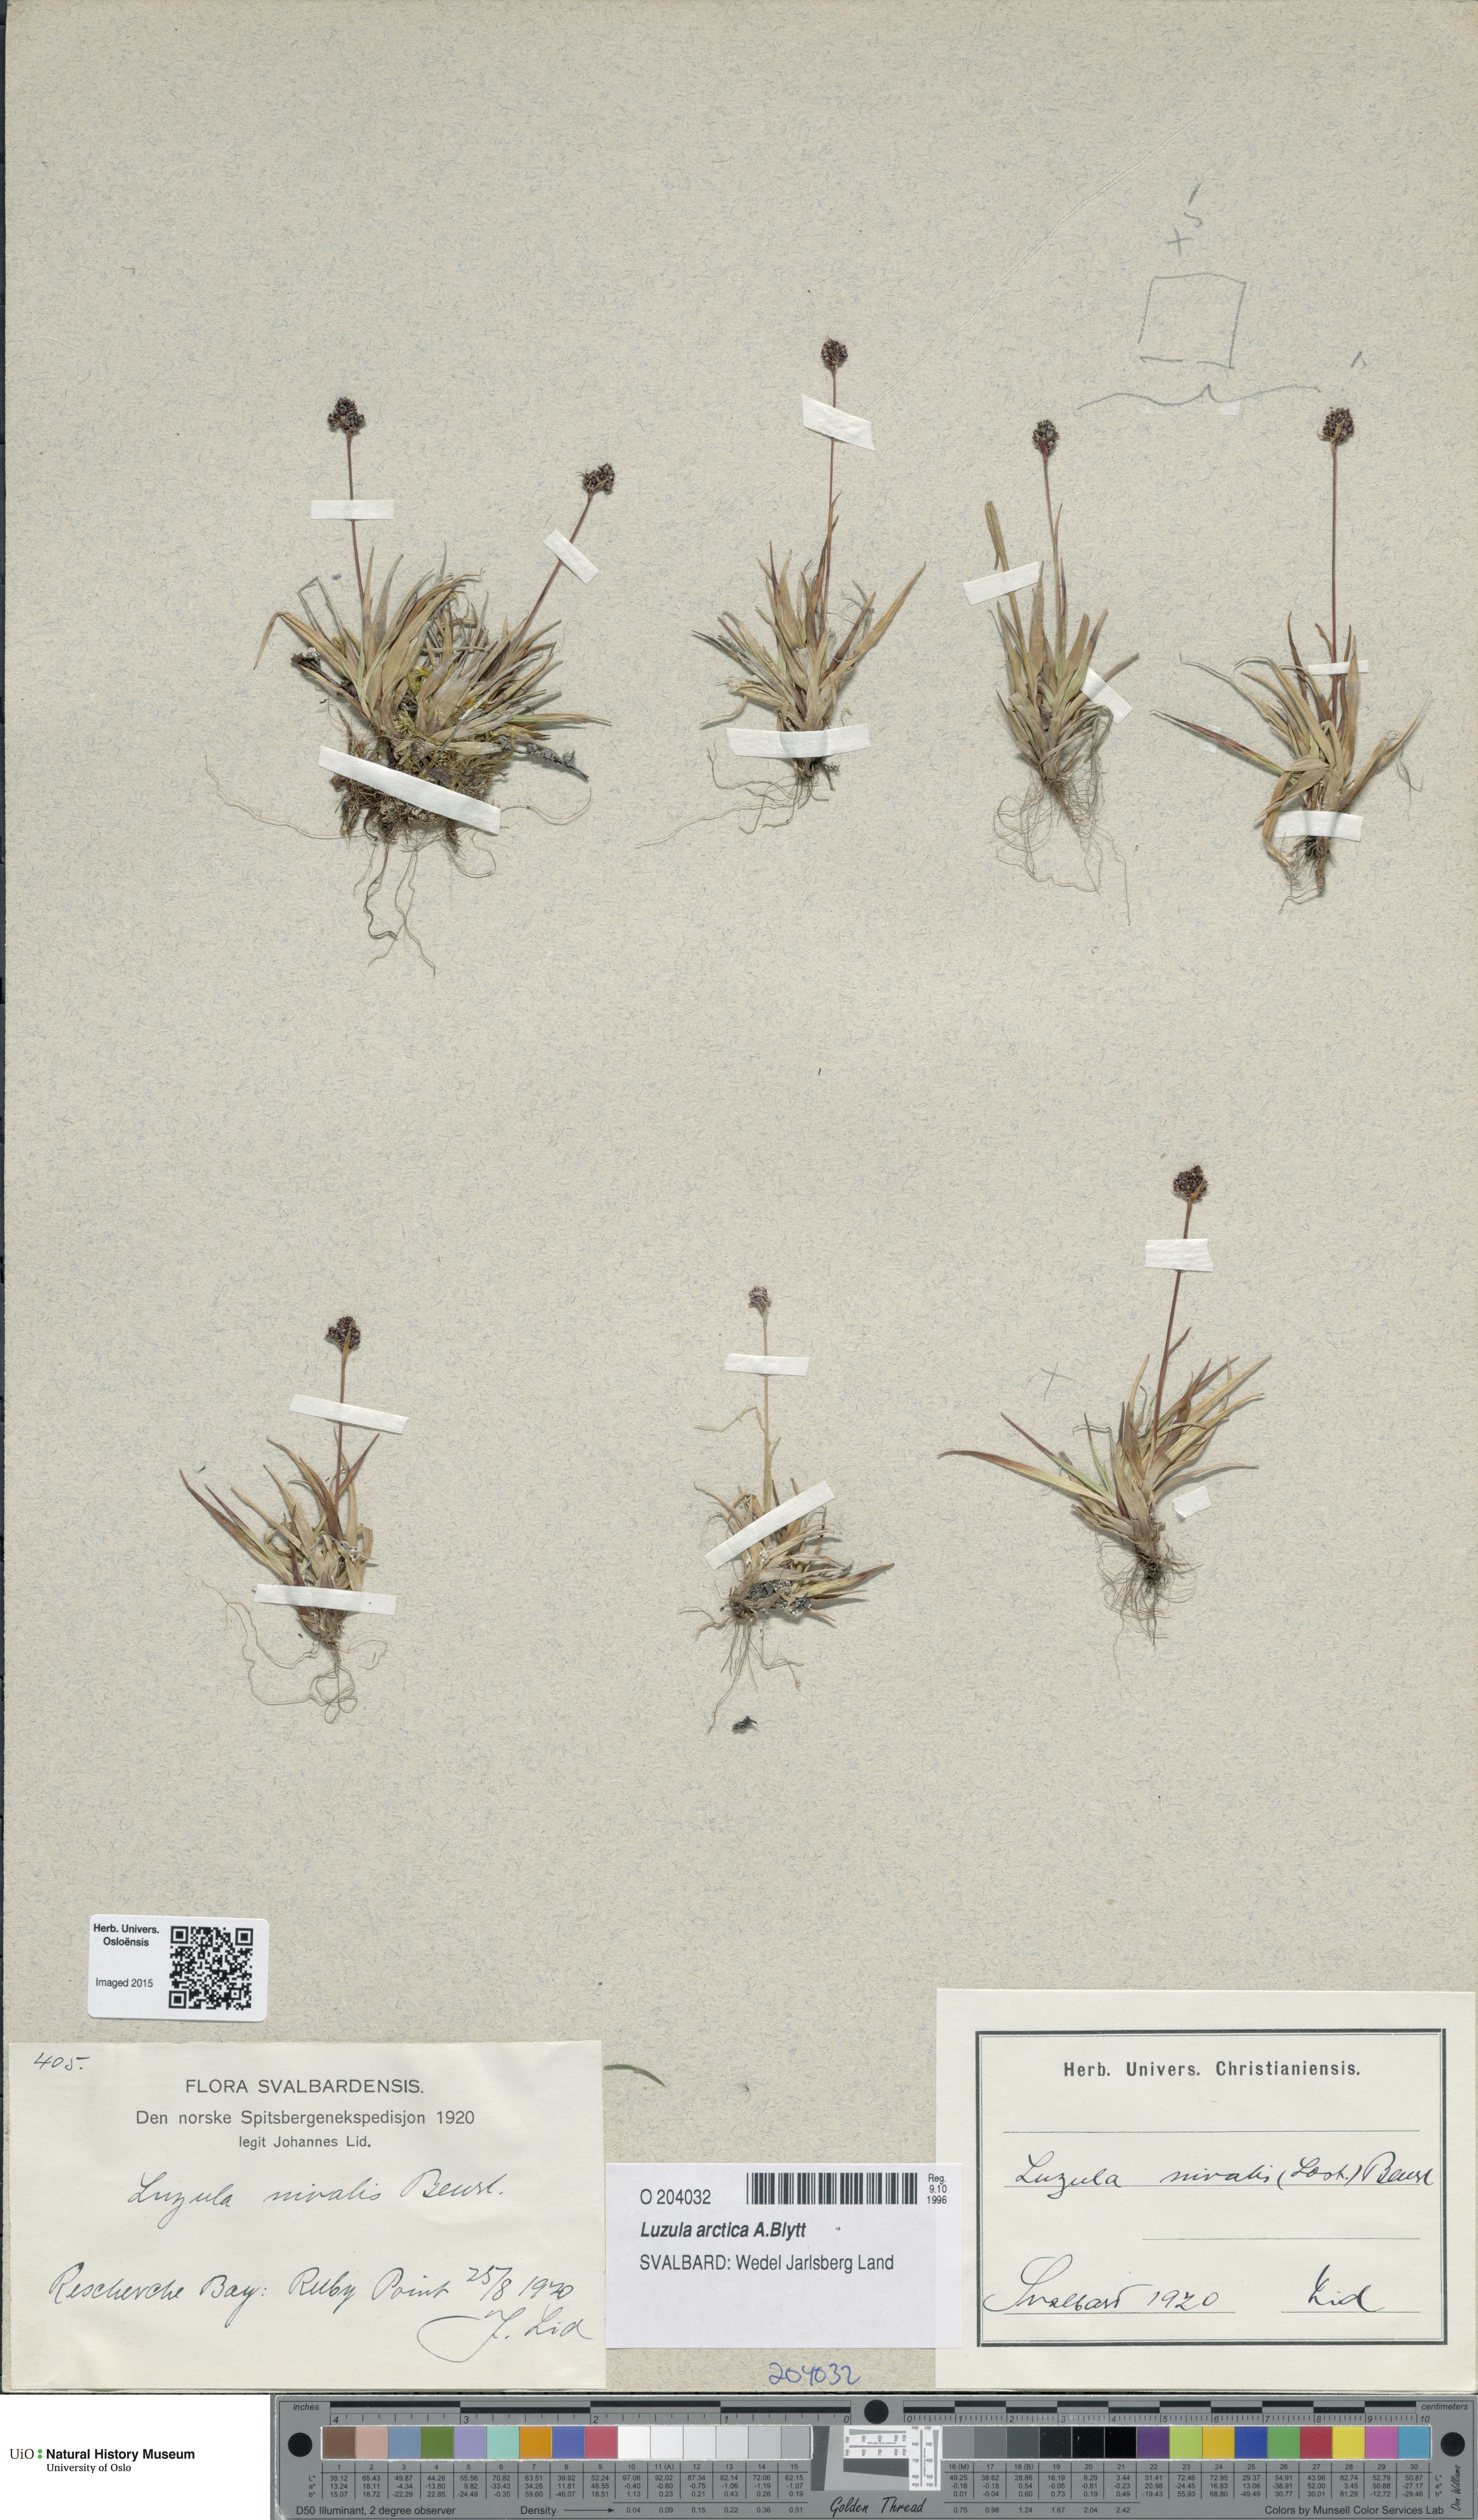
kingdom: Plantae
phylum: Tracheophyta
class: Liliopsida
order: Poales
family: Juncaceae
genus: Luzula
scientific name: Luzula nivalis
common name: Arctic woodrush
